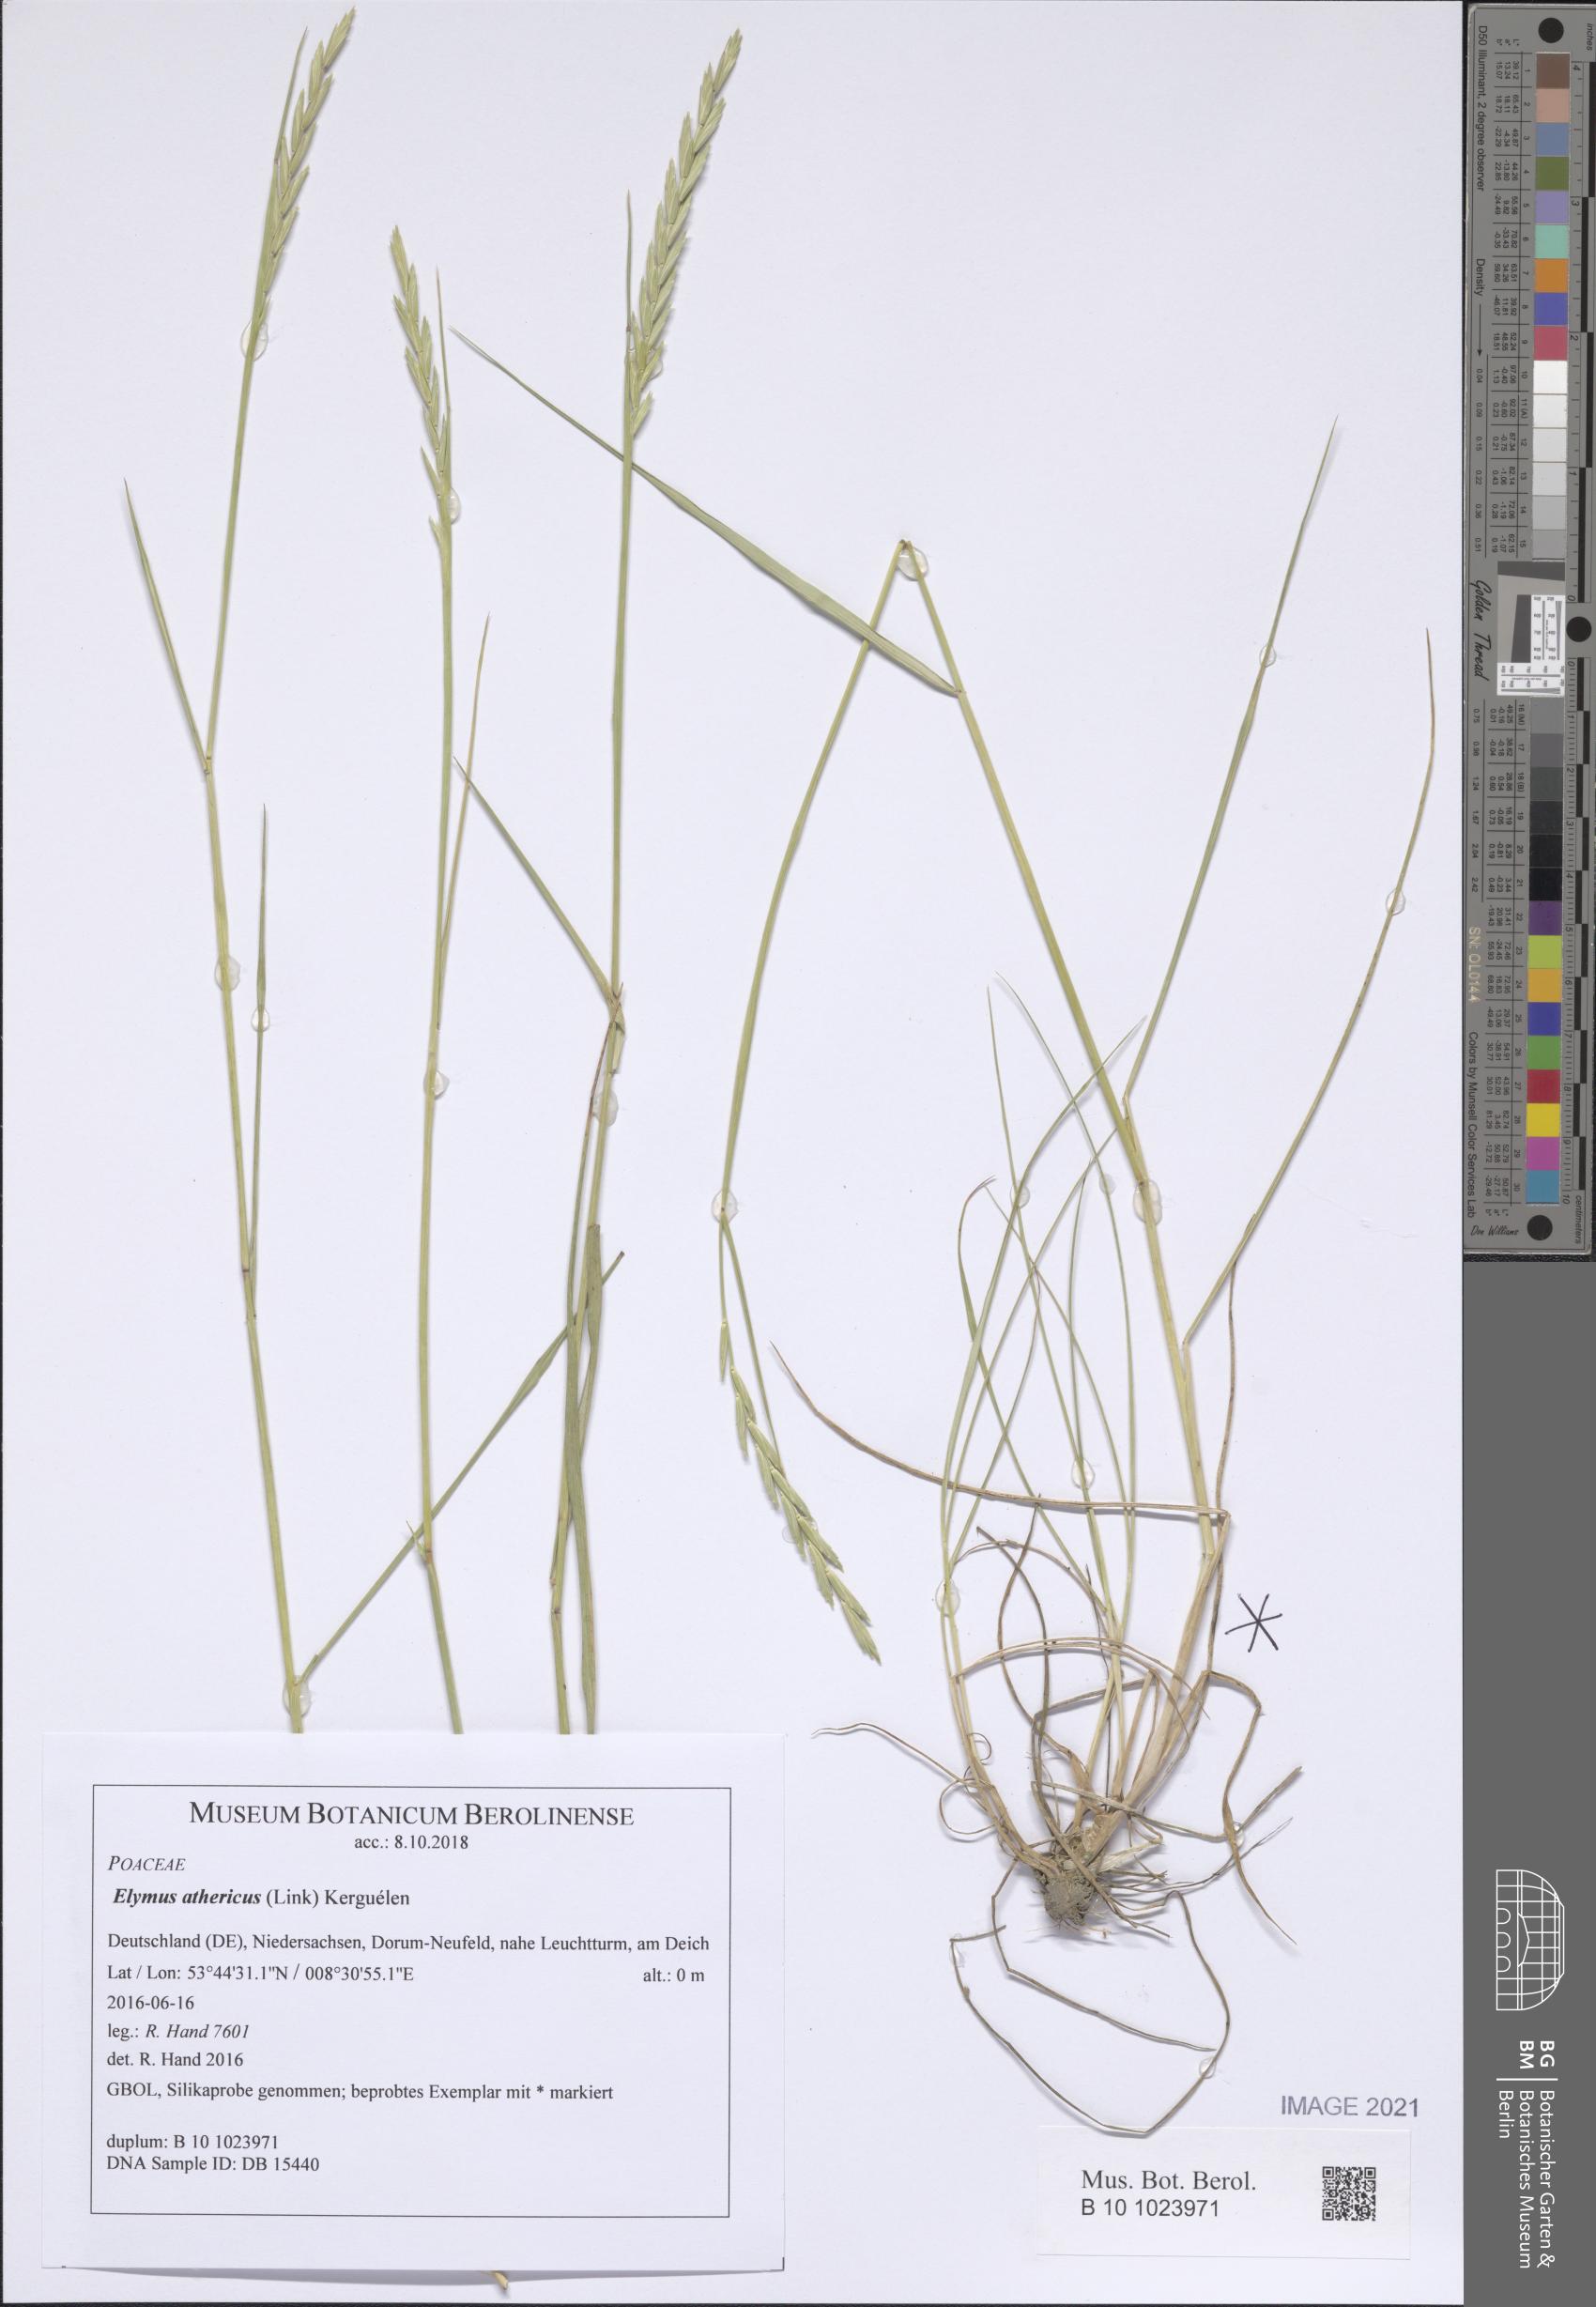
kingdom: Plantae
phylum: Tracheophyta
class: Liliopsida
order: Poales
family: Poaceae
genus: Elymus
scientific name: Elymus athericus
